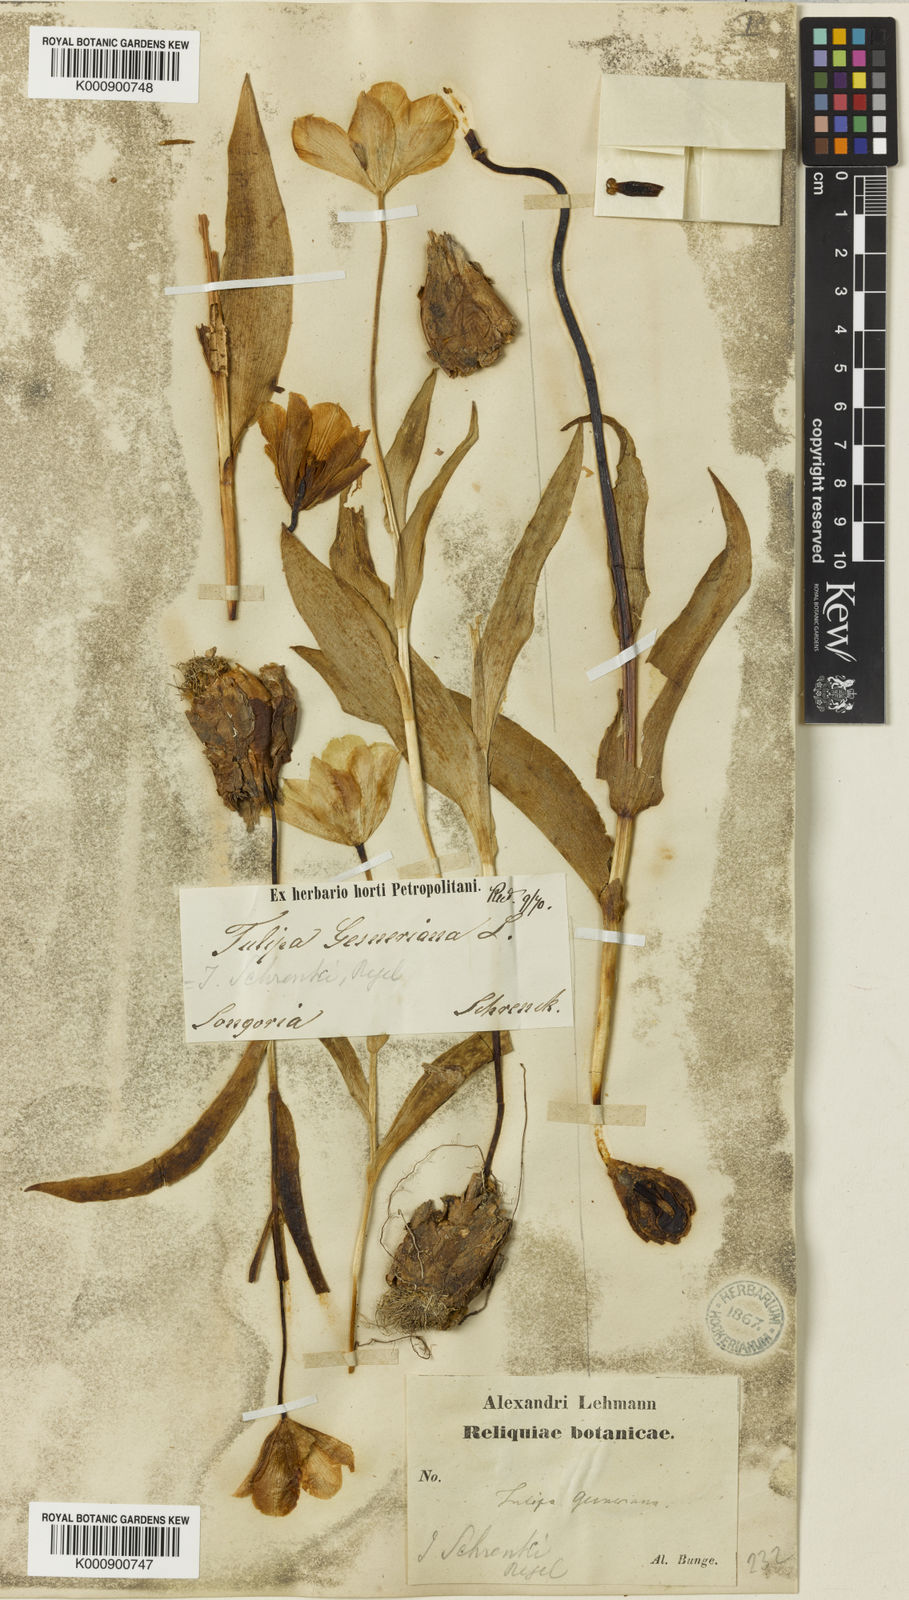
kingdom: Plantae
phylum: Tracheophyta
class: Liliopsida
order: Liliales
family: Liliaceae
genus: Tulipa
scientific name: Tulipa suaveolens
